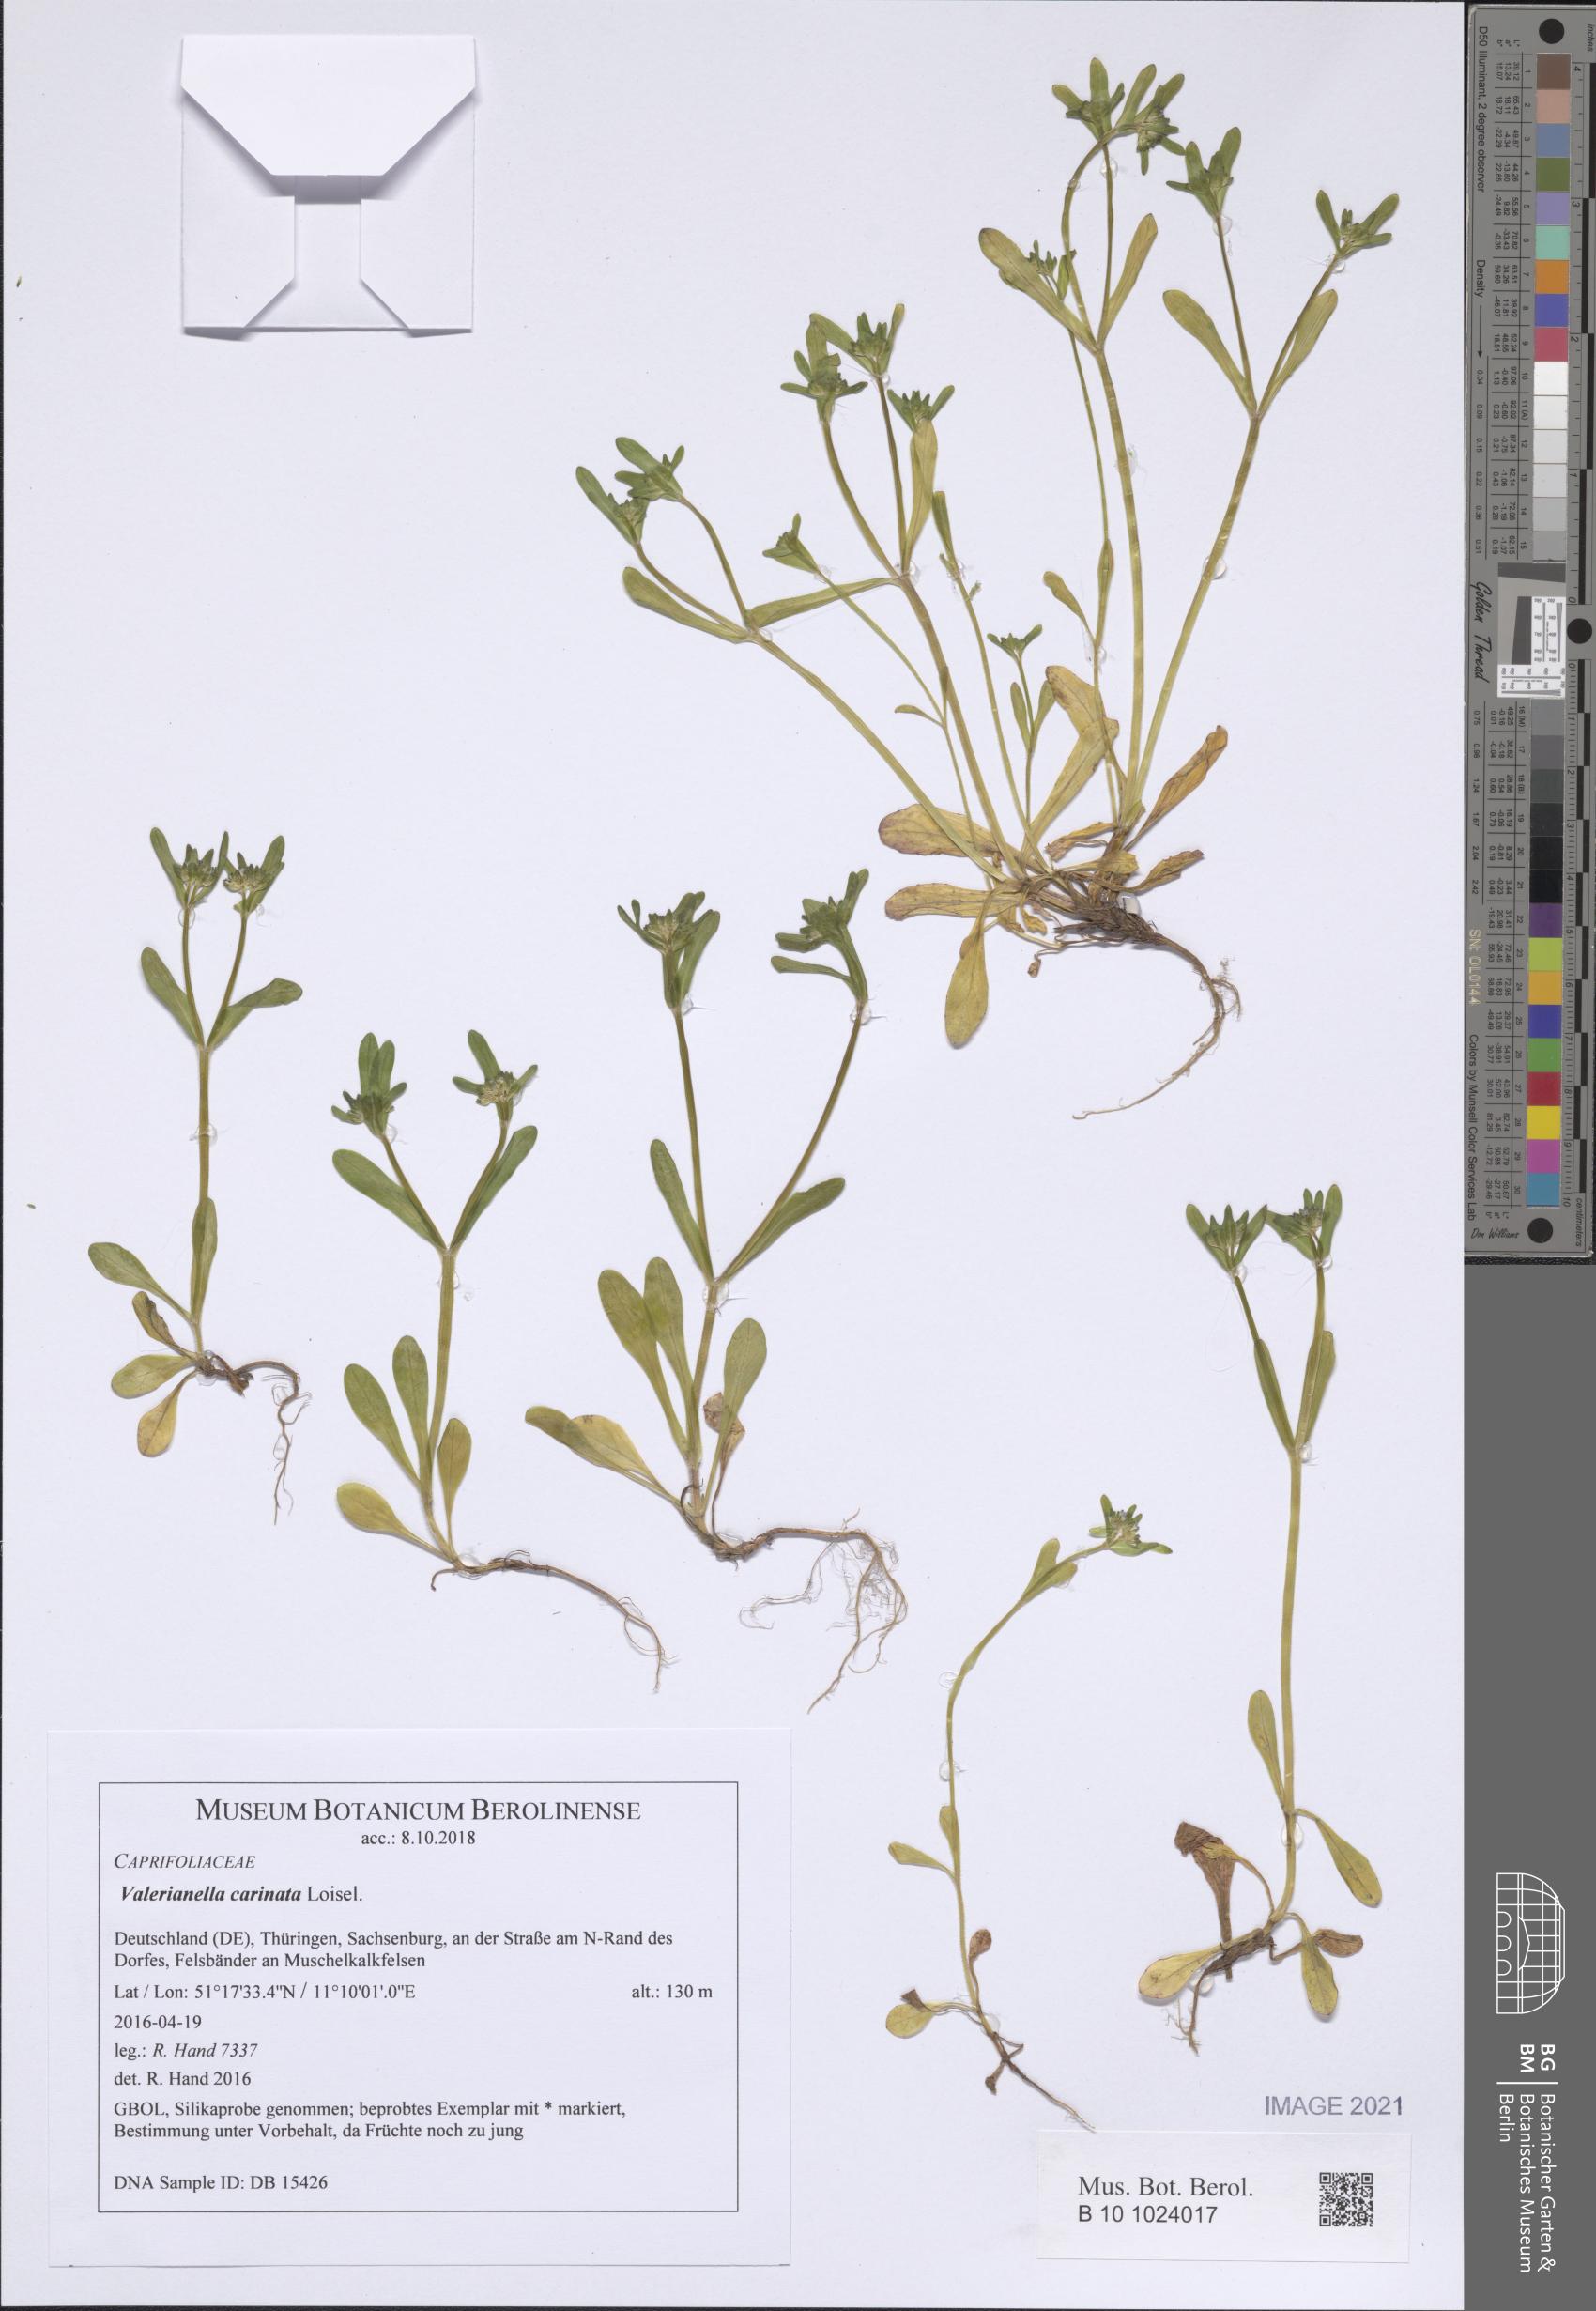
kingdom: Plantae
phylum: Tracheophyta
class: Magnoliopsida
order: Dipsacales
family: Caprifoliaceae
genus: Valerianella
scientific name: Valerianella carinata
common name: Keeled-fruited cornsalad
